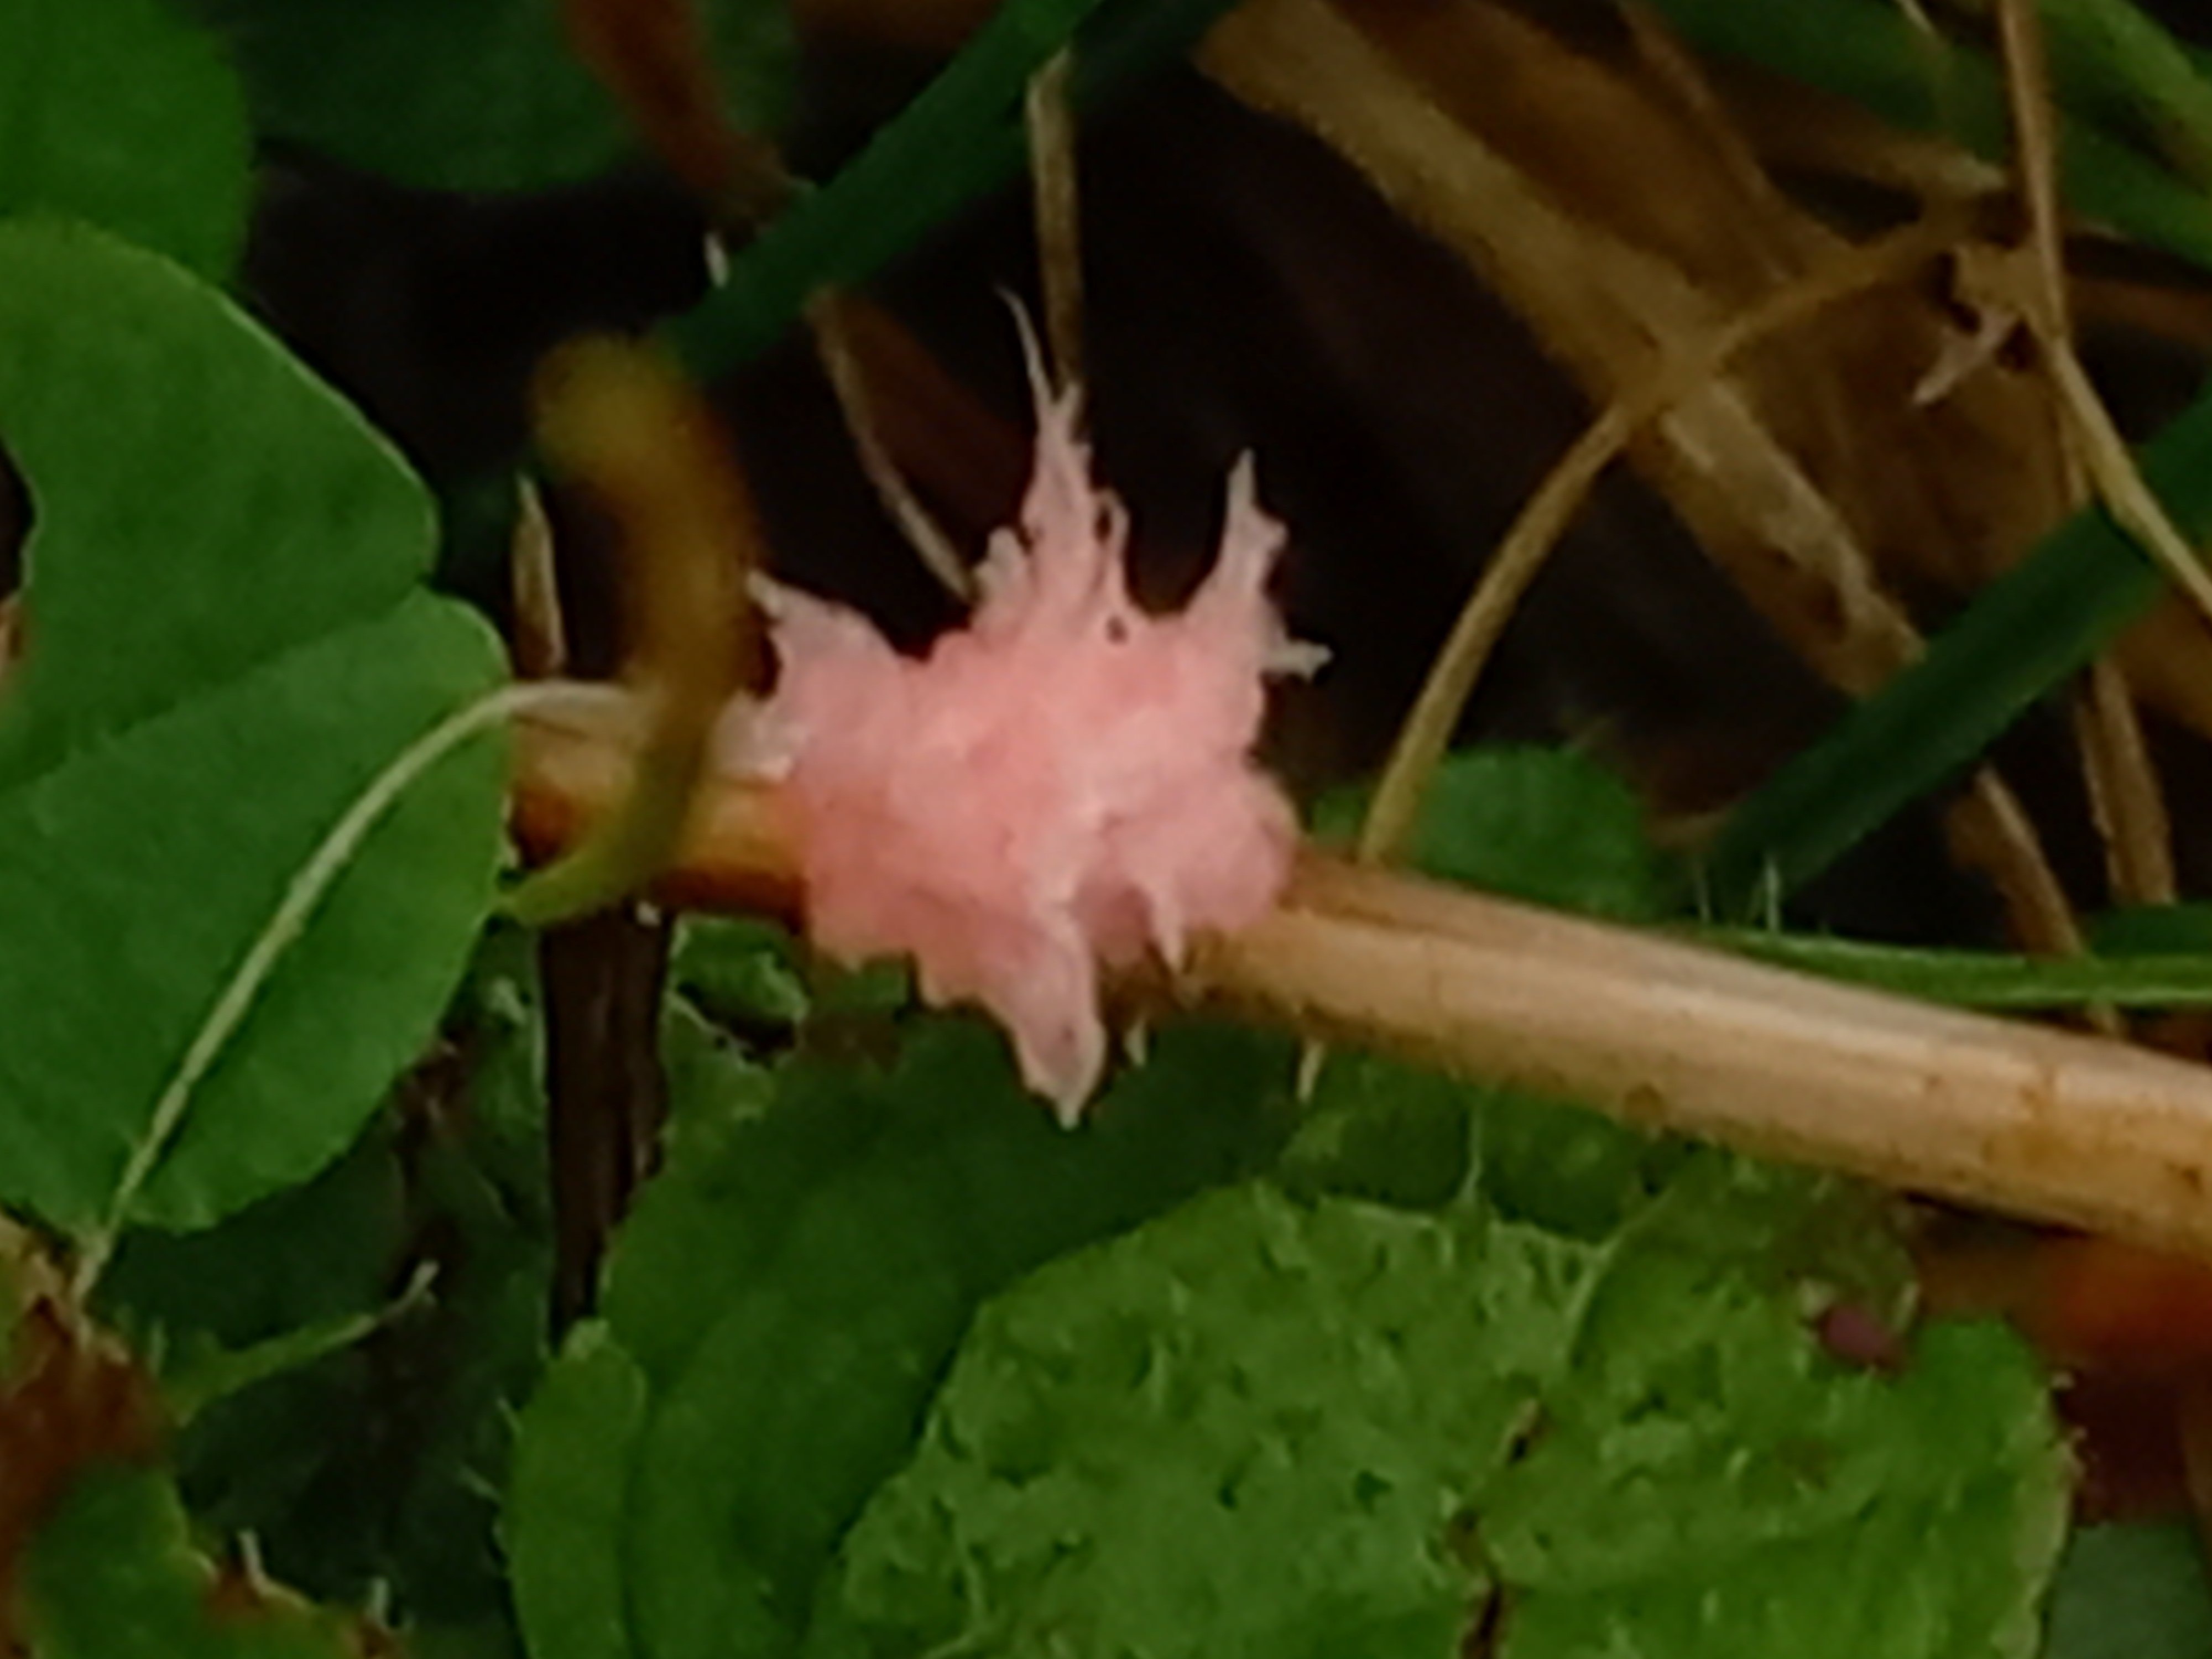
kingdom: Fungi
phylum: Basidiomycota
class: Agaricomycetes
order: Corticiales
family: Corticiaceae
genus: Laetisaria
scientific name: Laetisaria
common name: rødtråd
